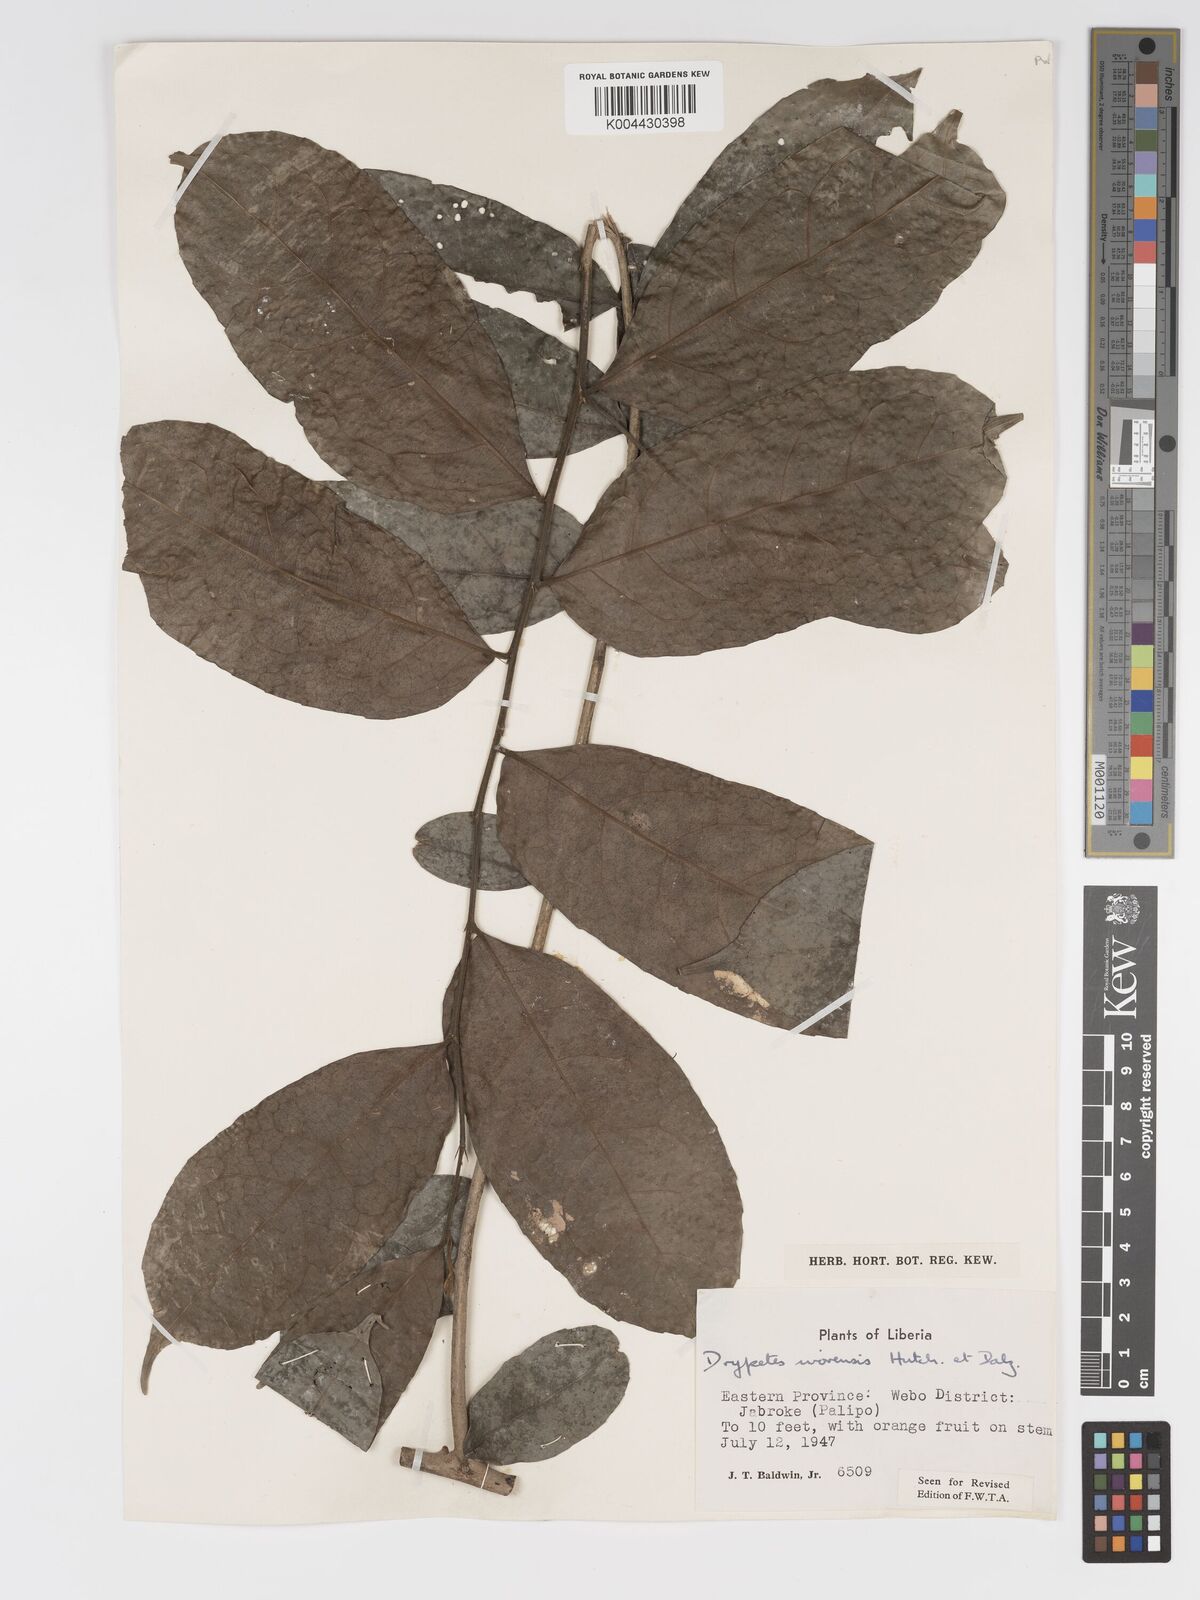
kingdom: Plantae
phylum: Tracheophyta
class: Magnoliopsida
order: Malpighiales
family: Putranjivaceae
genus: Drypetes
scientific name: Drypetes ivorensis
